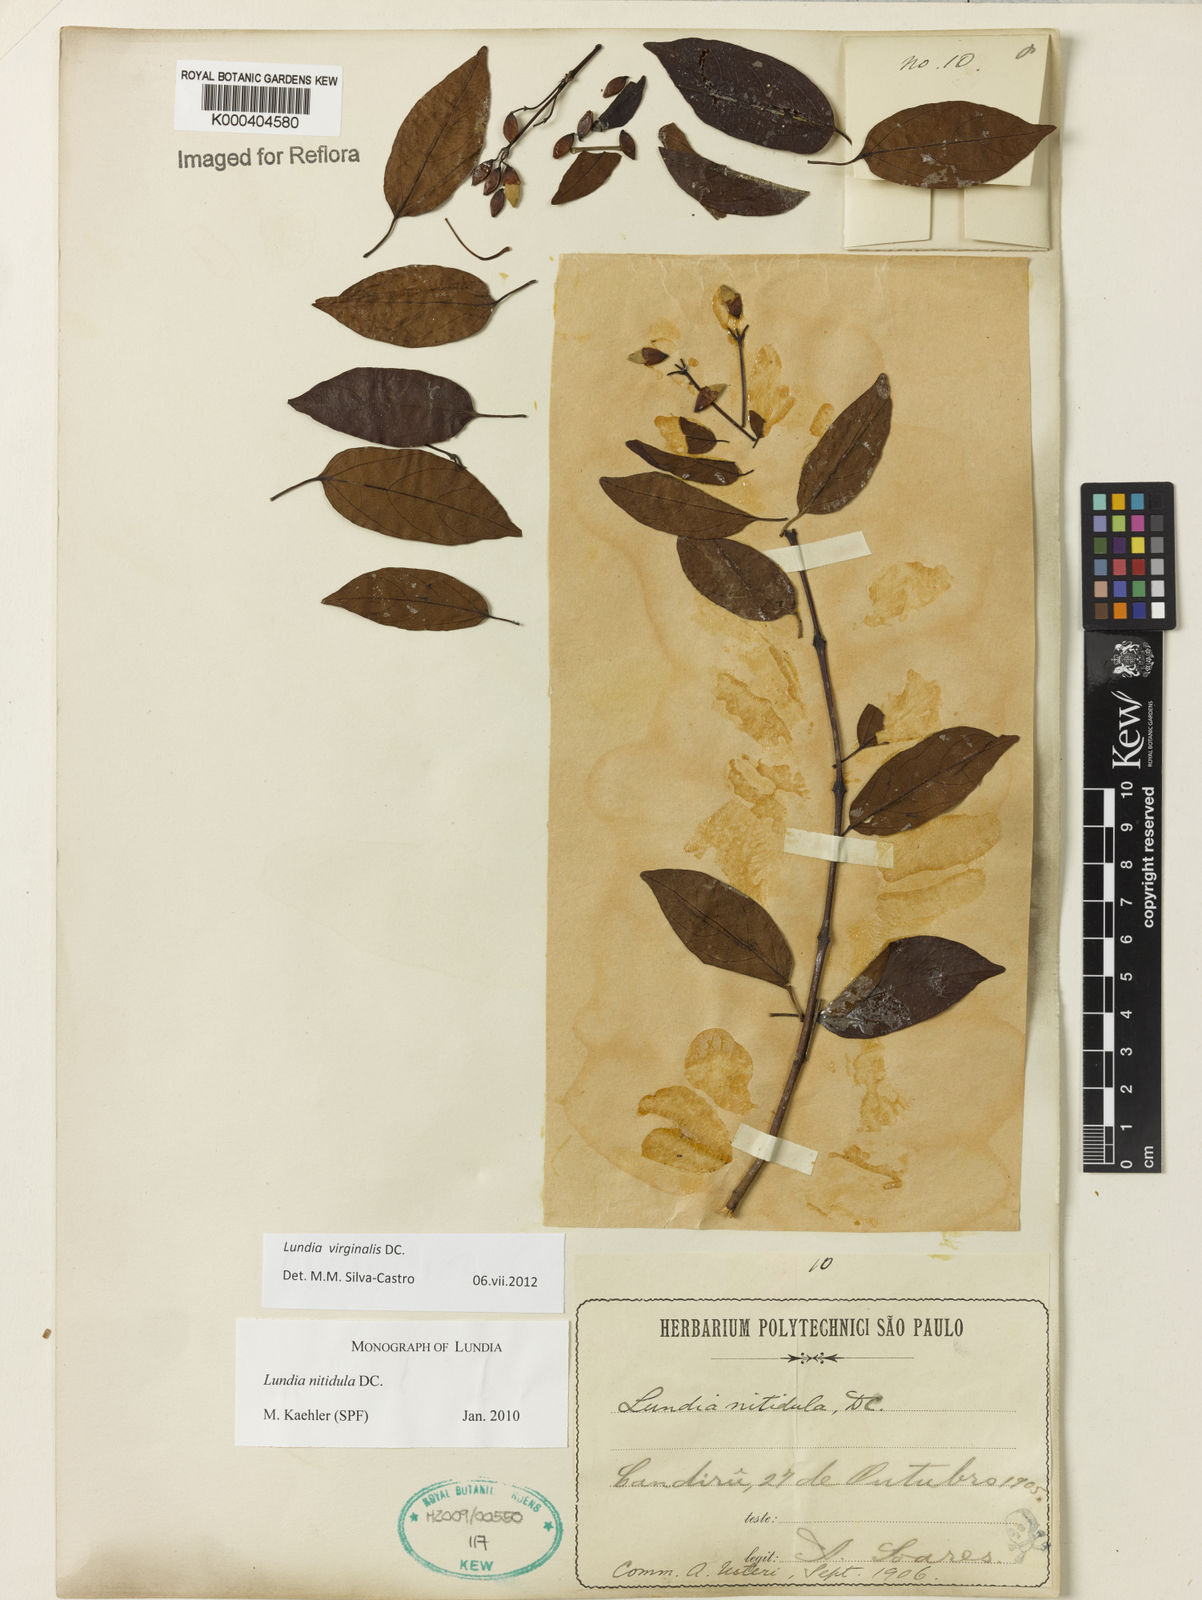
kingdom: Plantae
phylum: Tracheophyta
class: Magnoliopsida
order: Lamiales
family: Bignoniaceae
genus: Lundia
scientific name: Lundia virginalis
